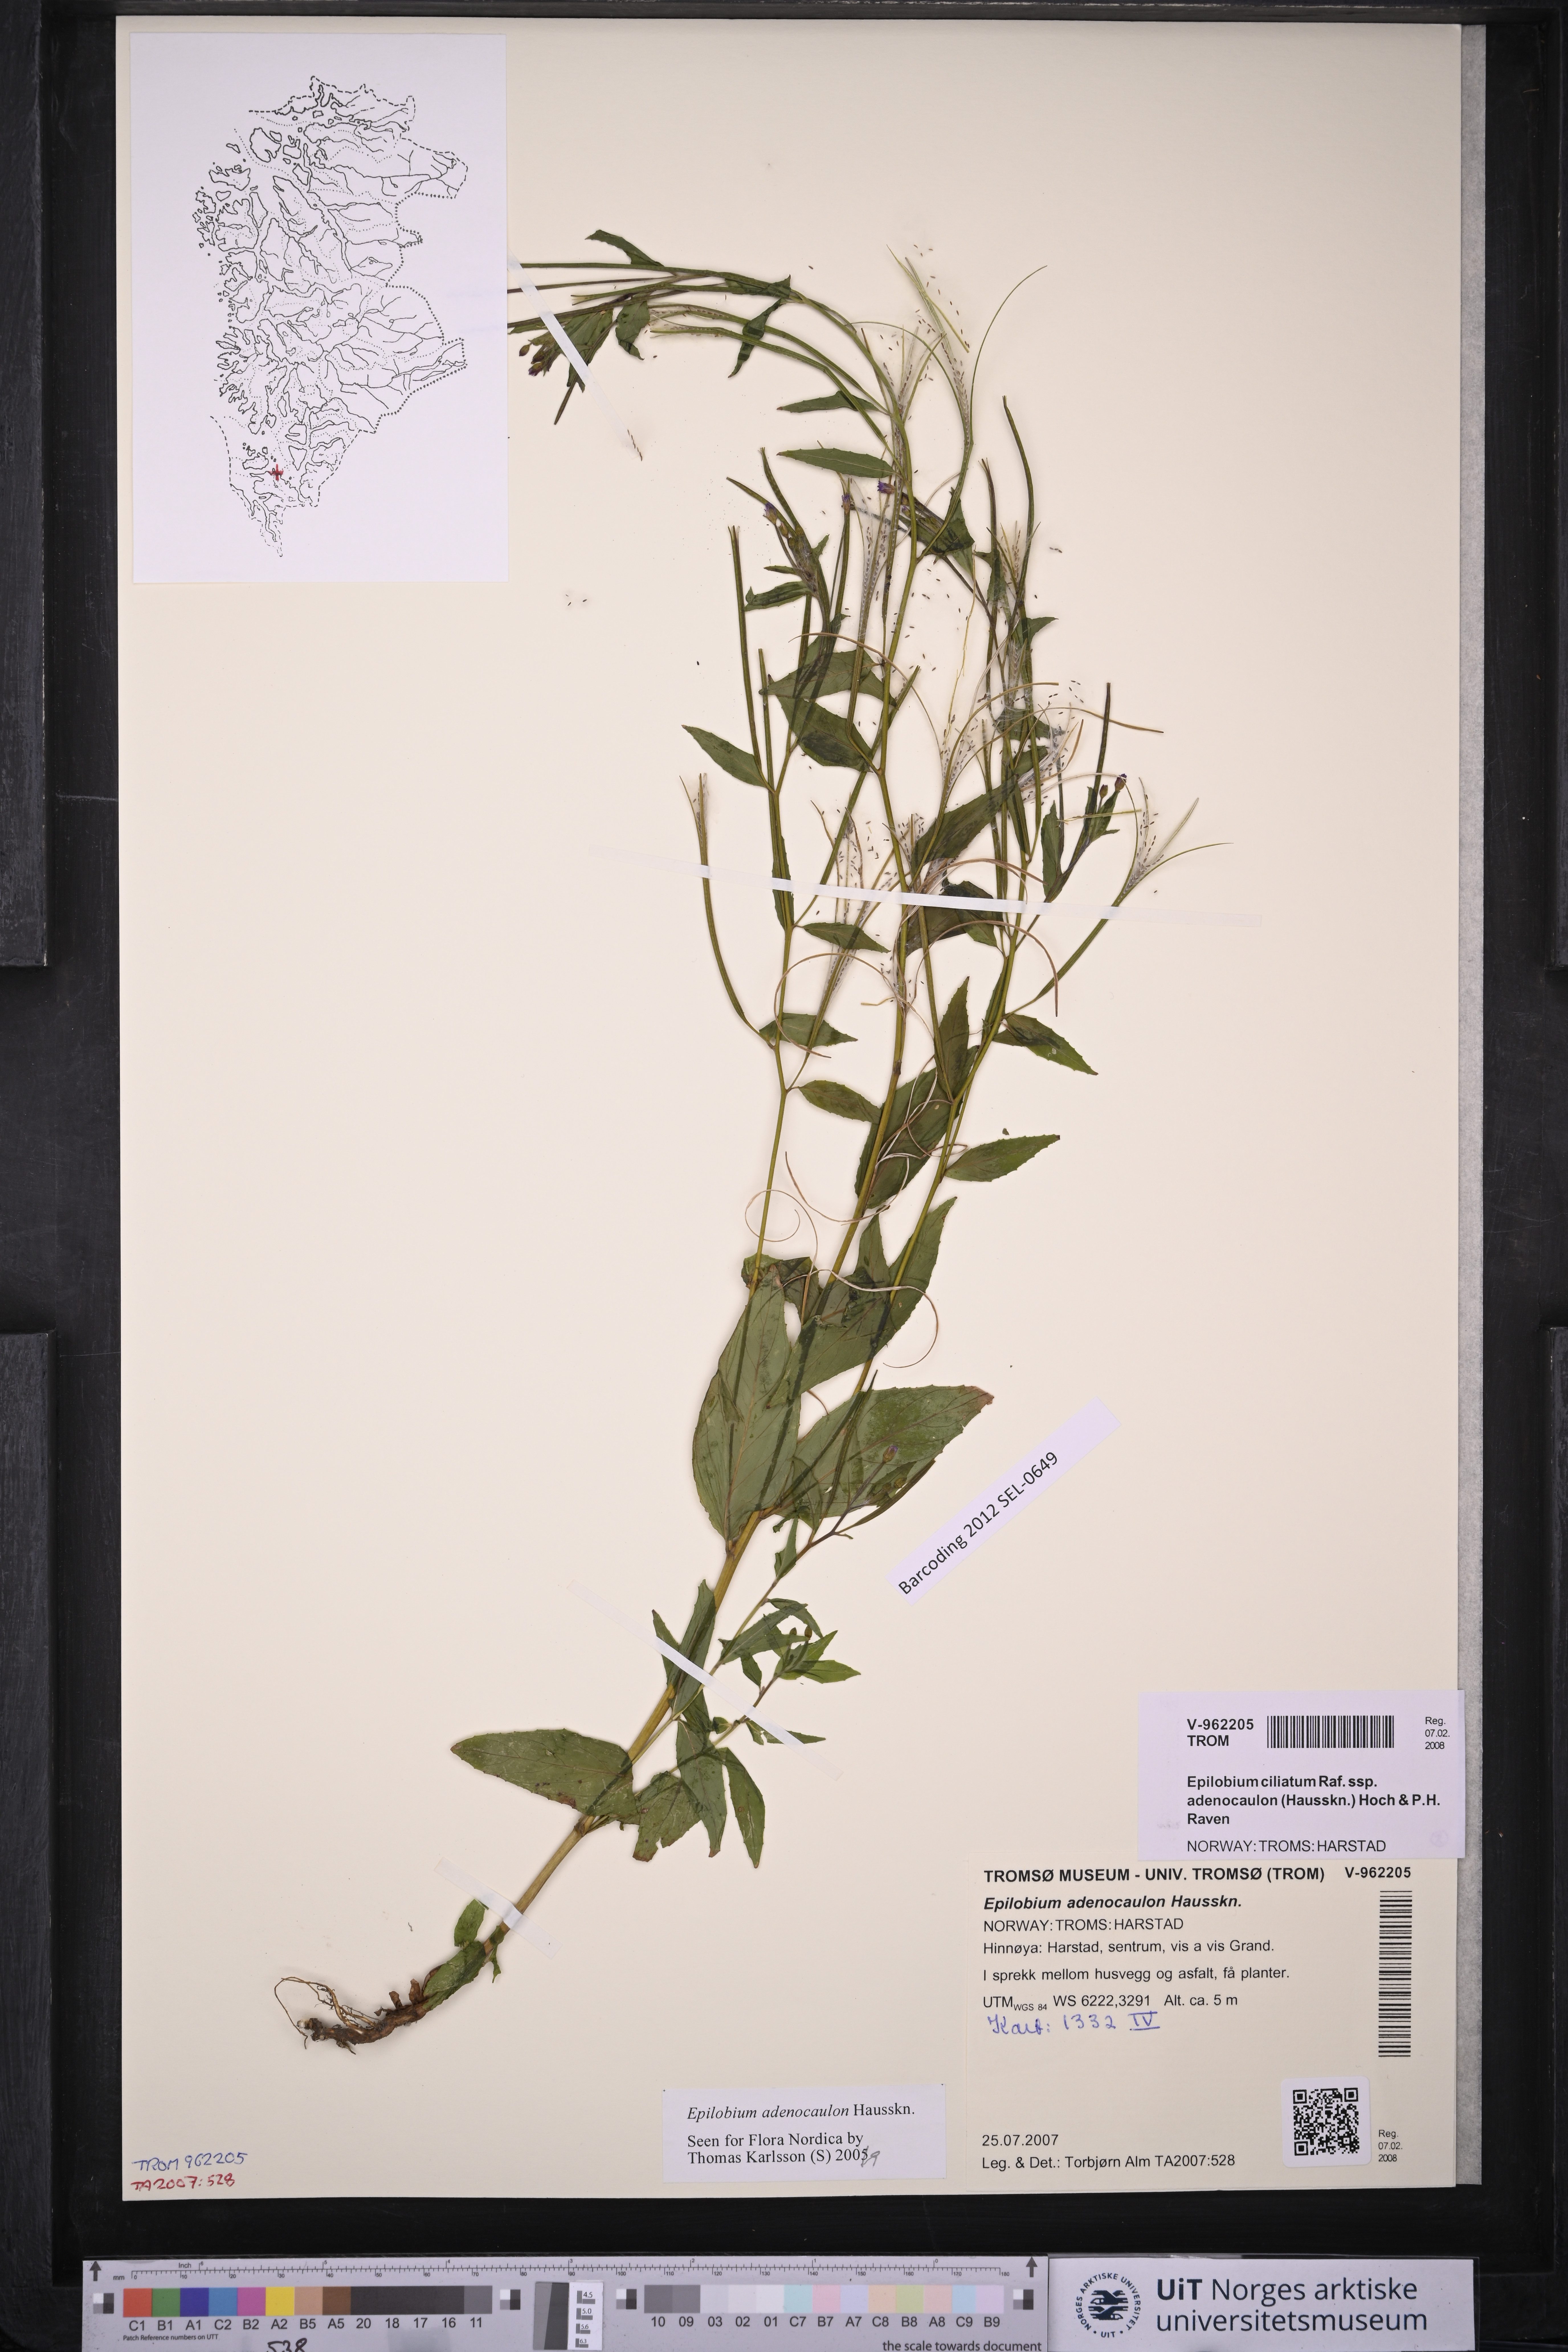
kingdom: Plantae
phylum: Tracheophyta
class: Magnoliopsida
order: Myrtales
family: Onagraceae
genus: Epilobium
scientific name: Epilobium ciliatum
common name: American willowherb
